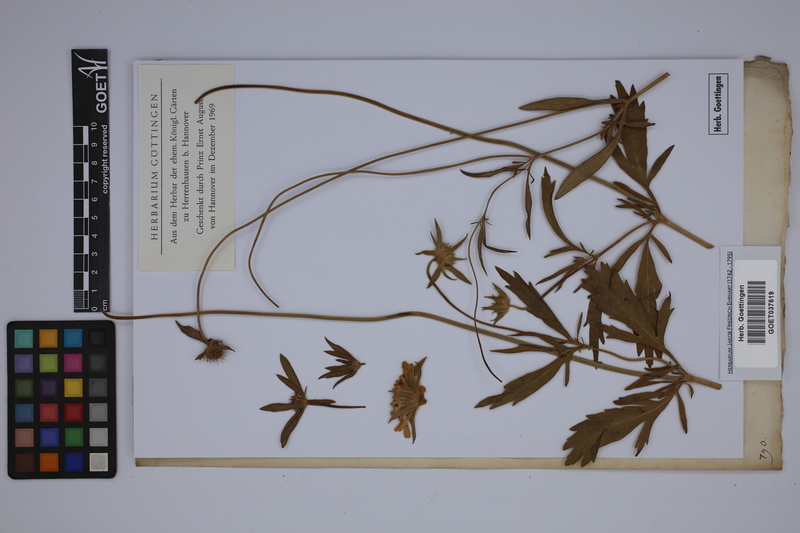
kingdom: Plantae
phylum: Tracheophyta
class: Magnoliopsida
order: Dipsacales
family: Caprifoliaceae
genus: Lomelosia
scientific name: Lomelosia stellata
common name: Teasel
